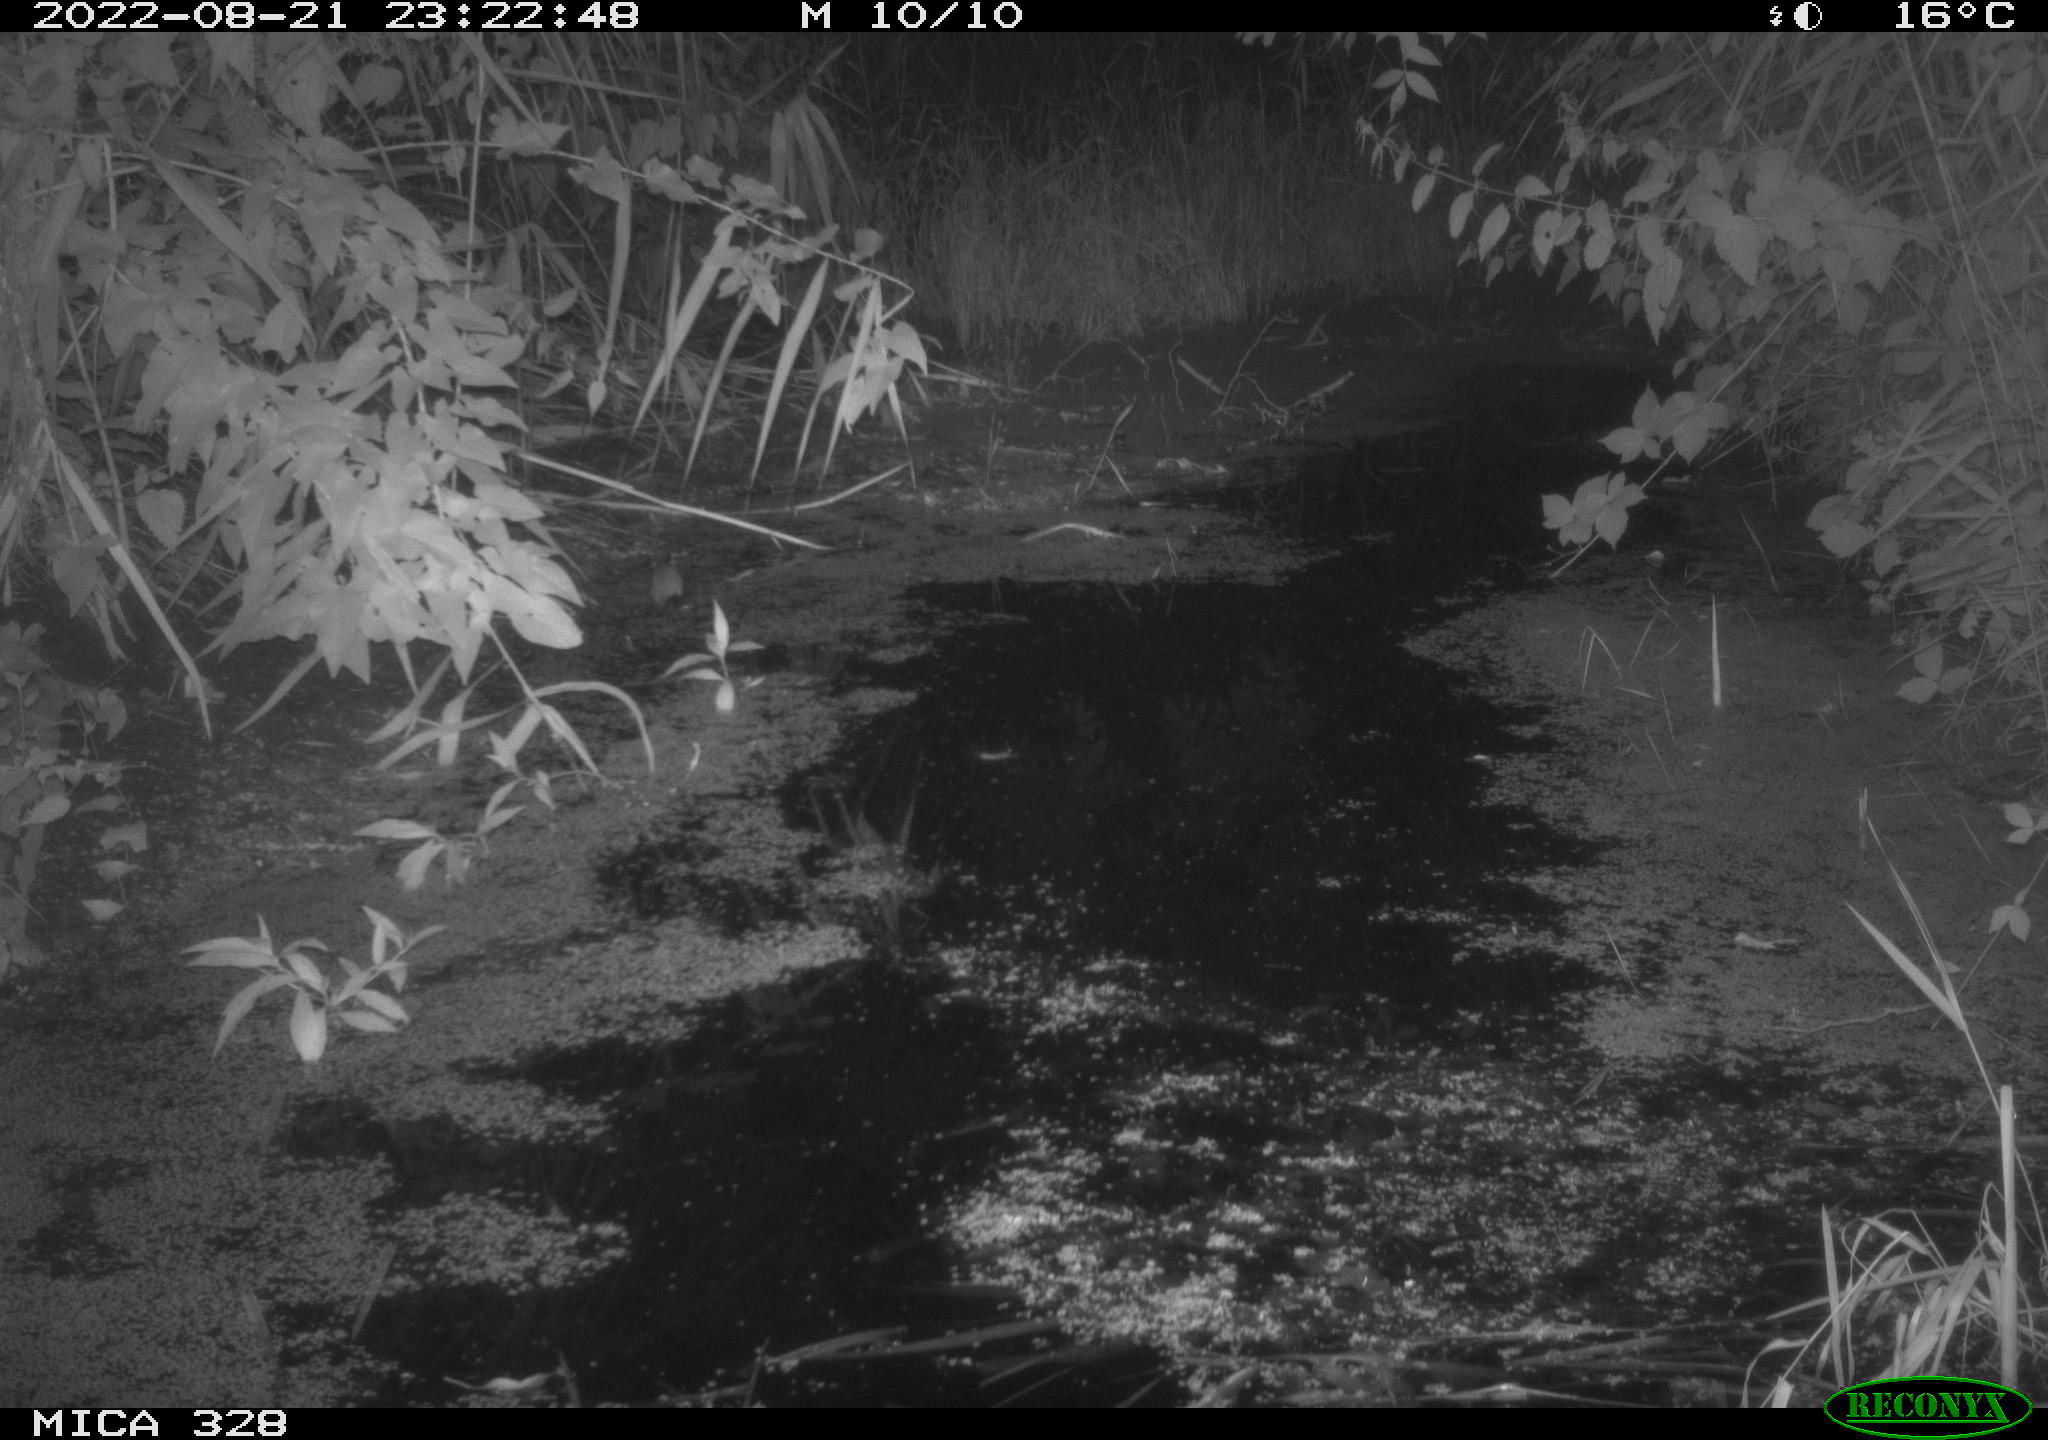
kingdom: Animalia
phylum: Chordata
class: Mammalia
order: Rodentia
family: Cricetidae
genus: Arvicola
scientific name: Arvicola amphibius
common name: European water vole
